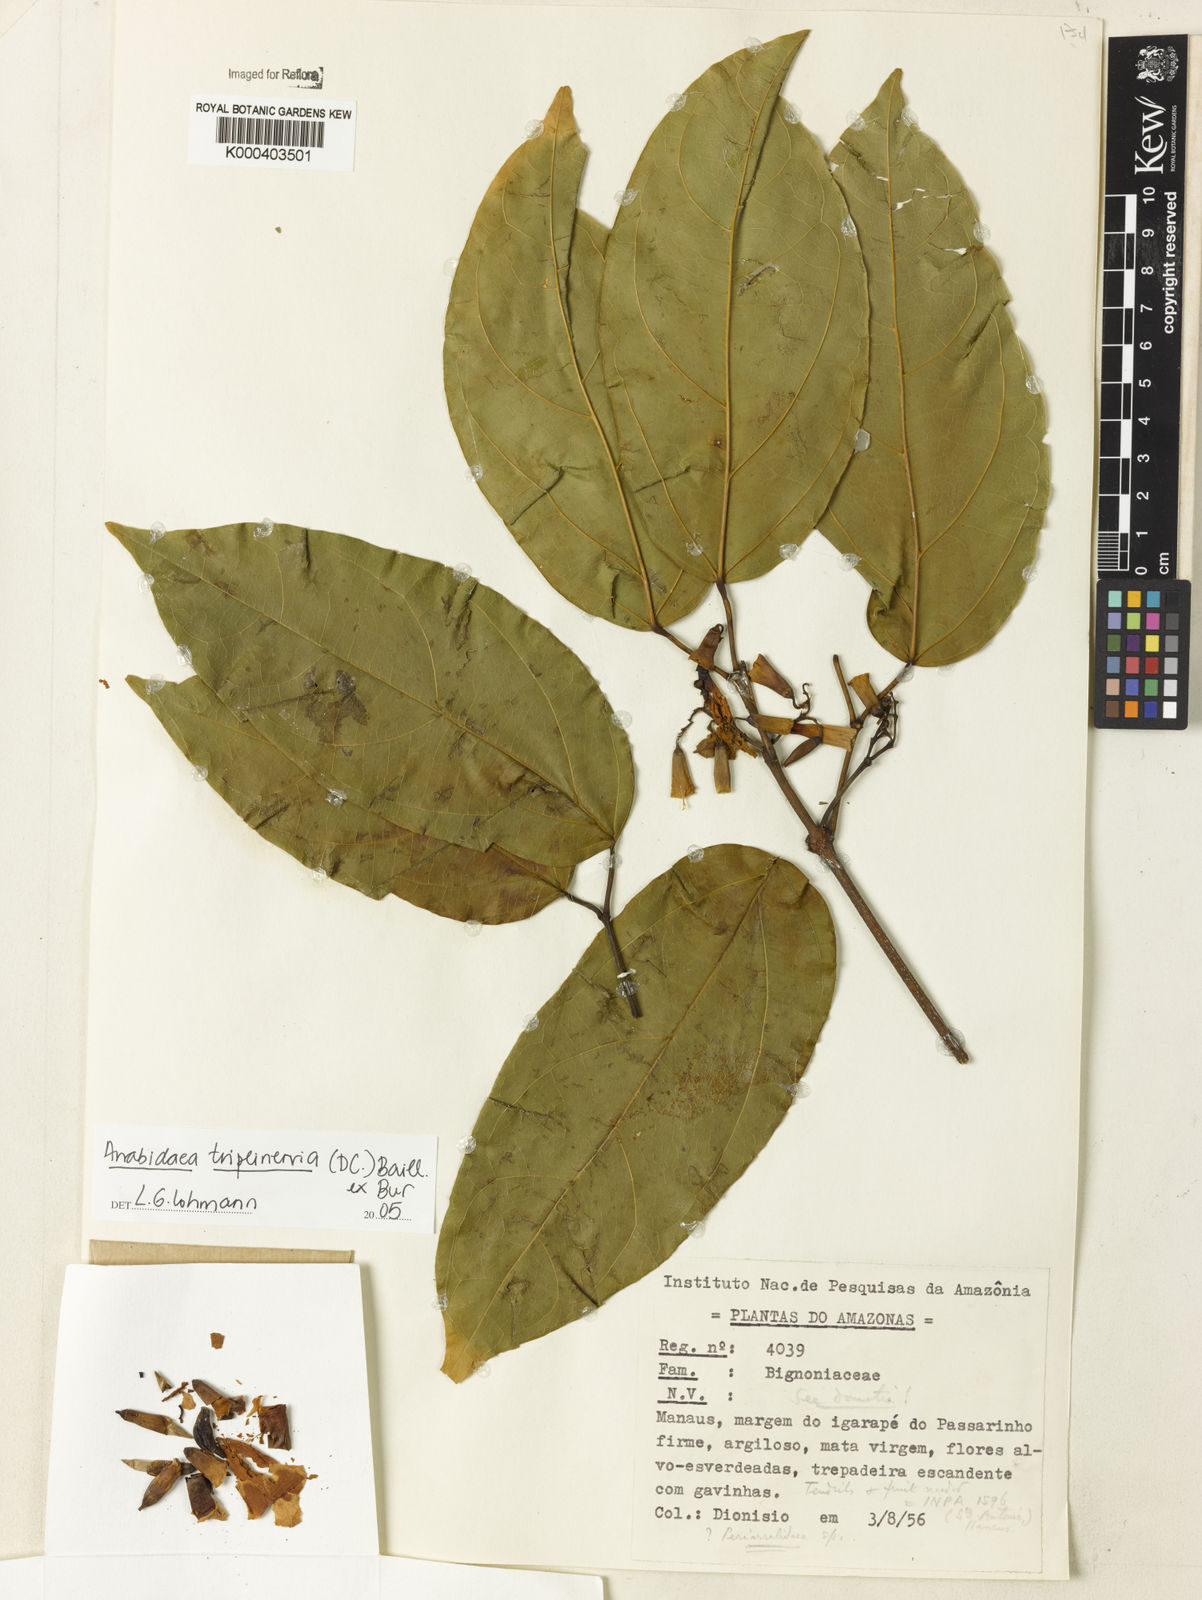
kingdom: Plantae
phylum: Tracheophyta
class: Magnoliopsida
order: Rosales
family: Rhamnaceae
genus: Arrabidaea
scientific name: Arrabidaea
